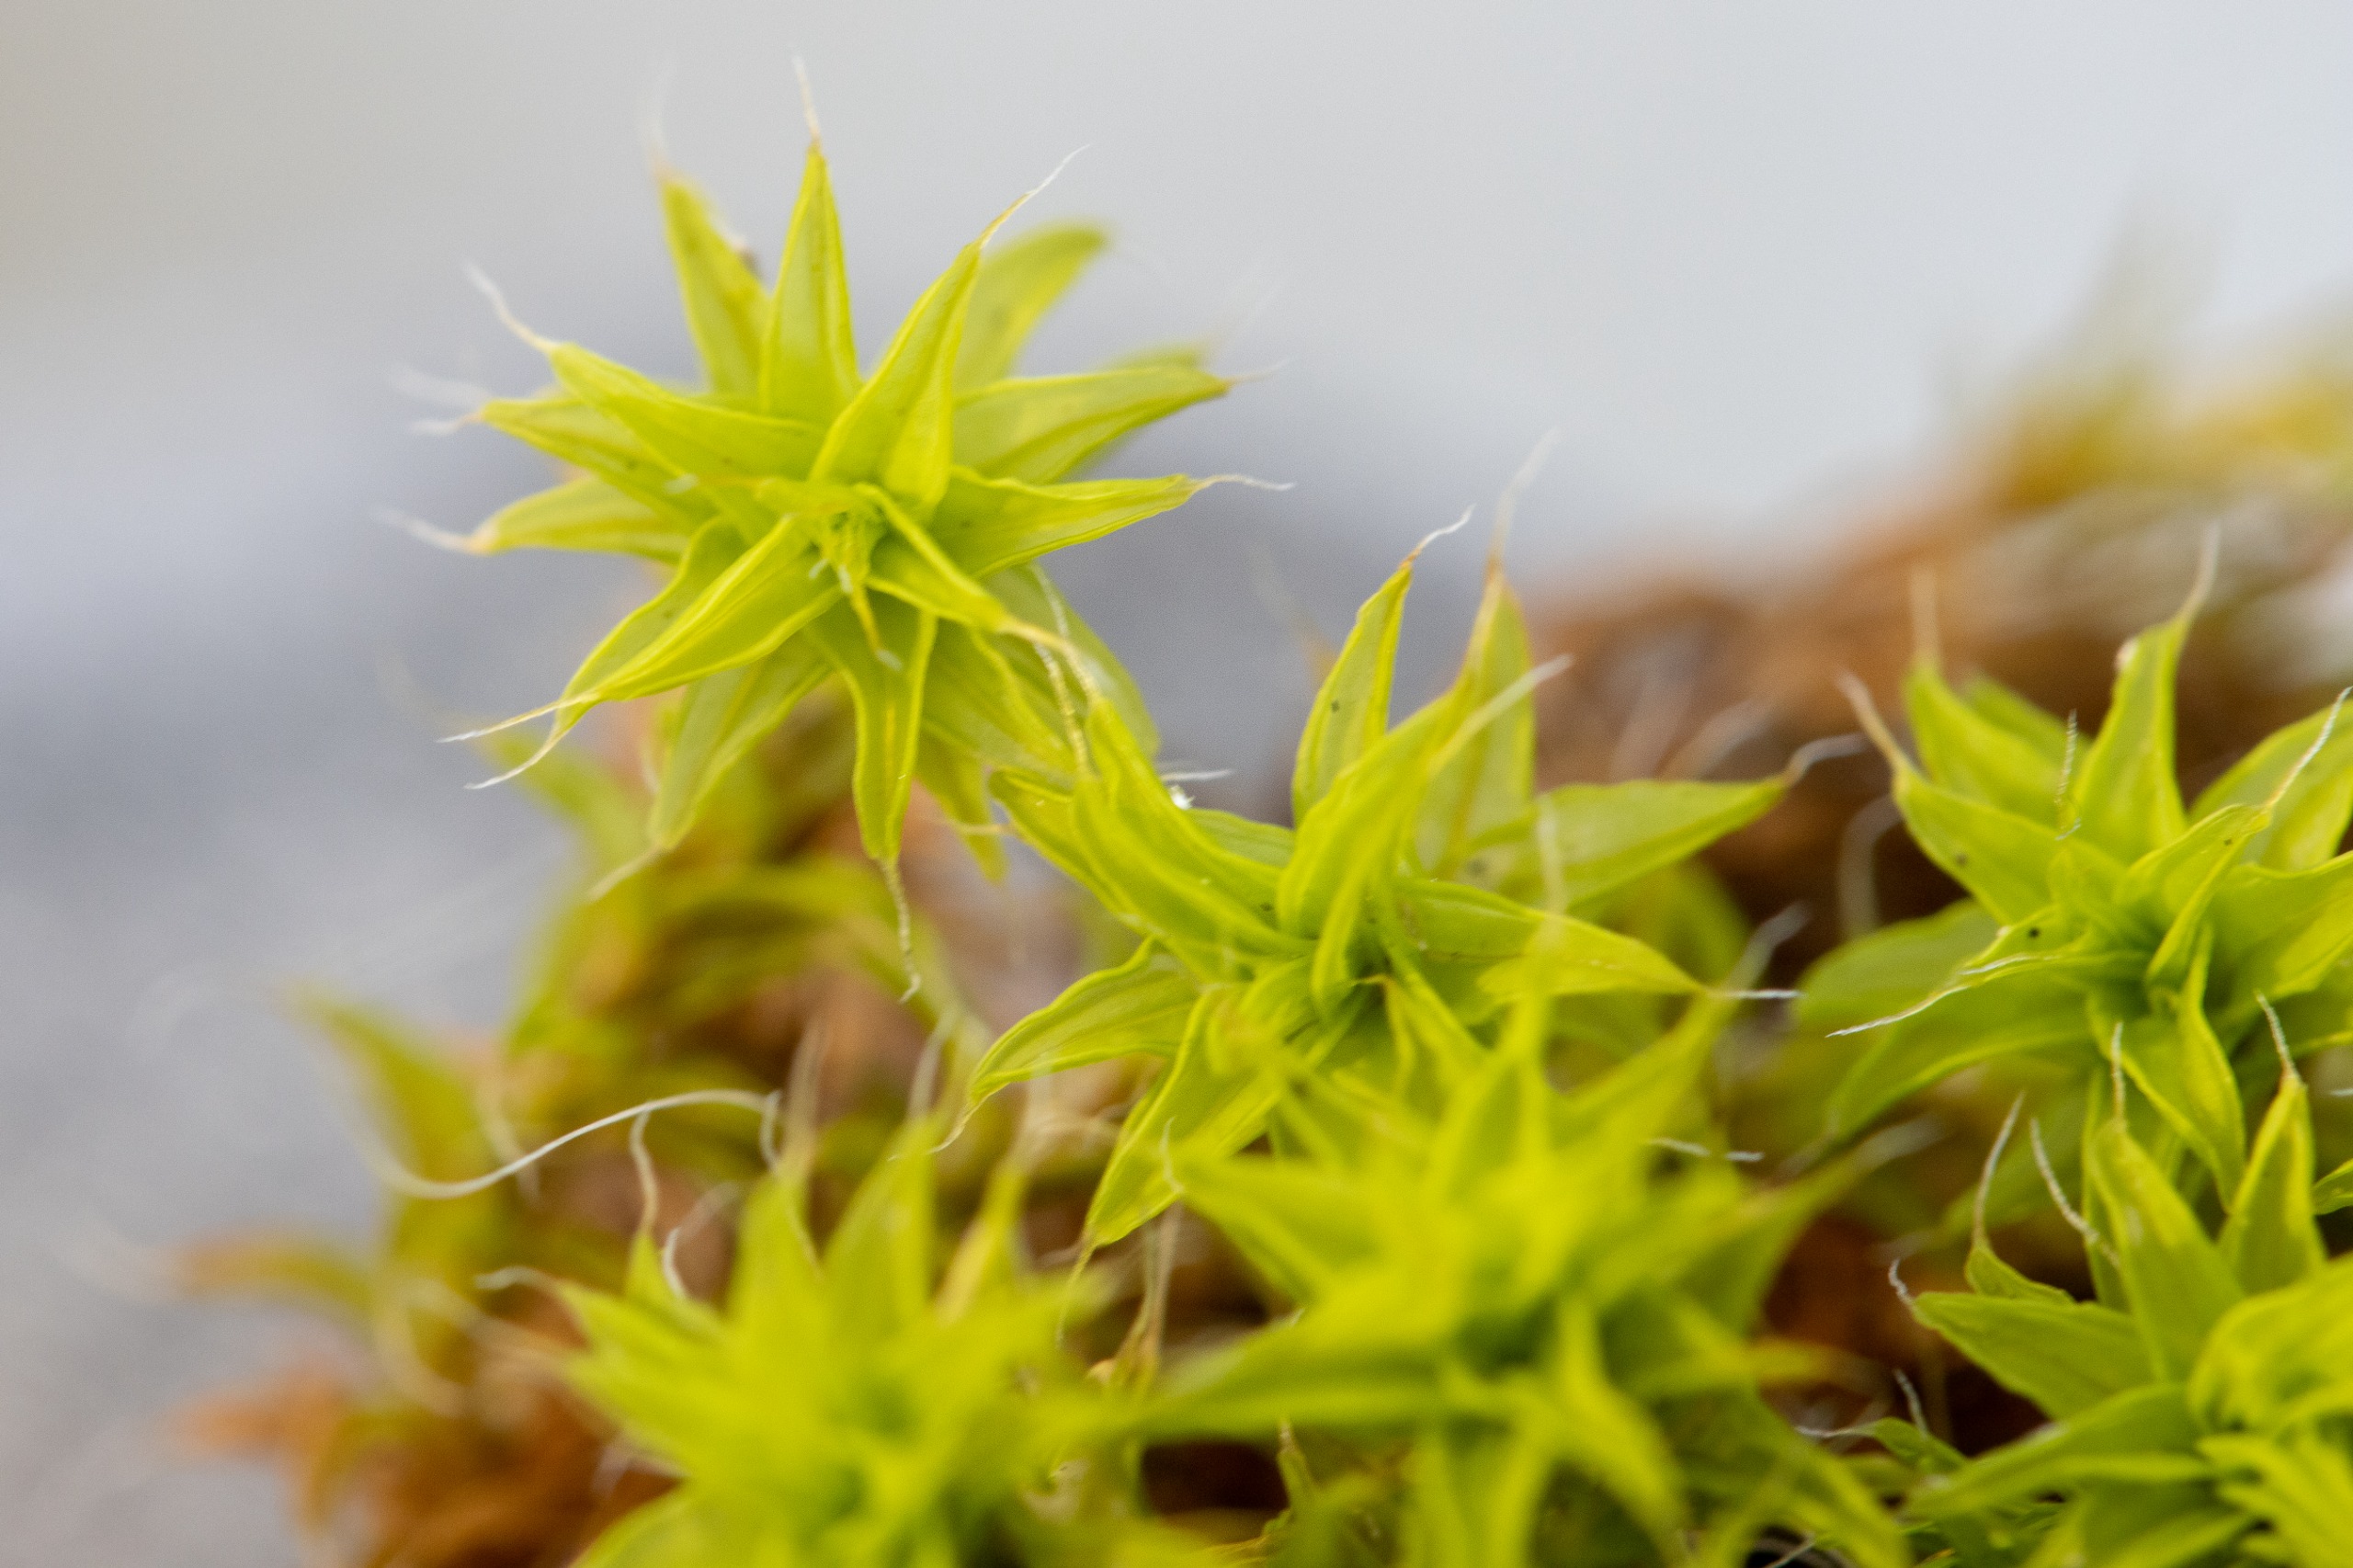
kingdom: Plantae
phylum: Bryophyta
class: Bryopsida
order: Pottiales
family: Pottiaceae
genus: Syntrichia
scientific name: Syntrichia ruralis
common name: Spidsbladet hårstjerne
